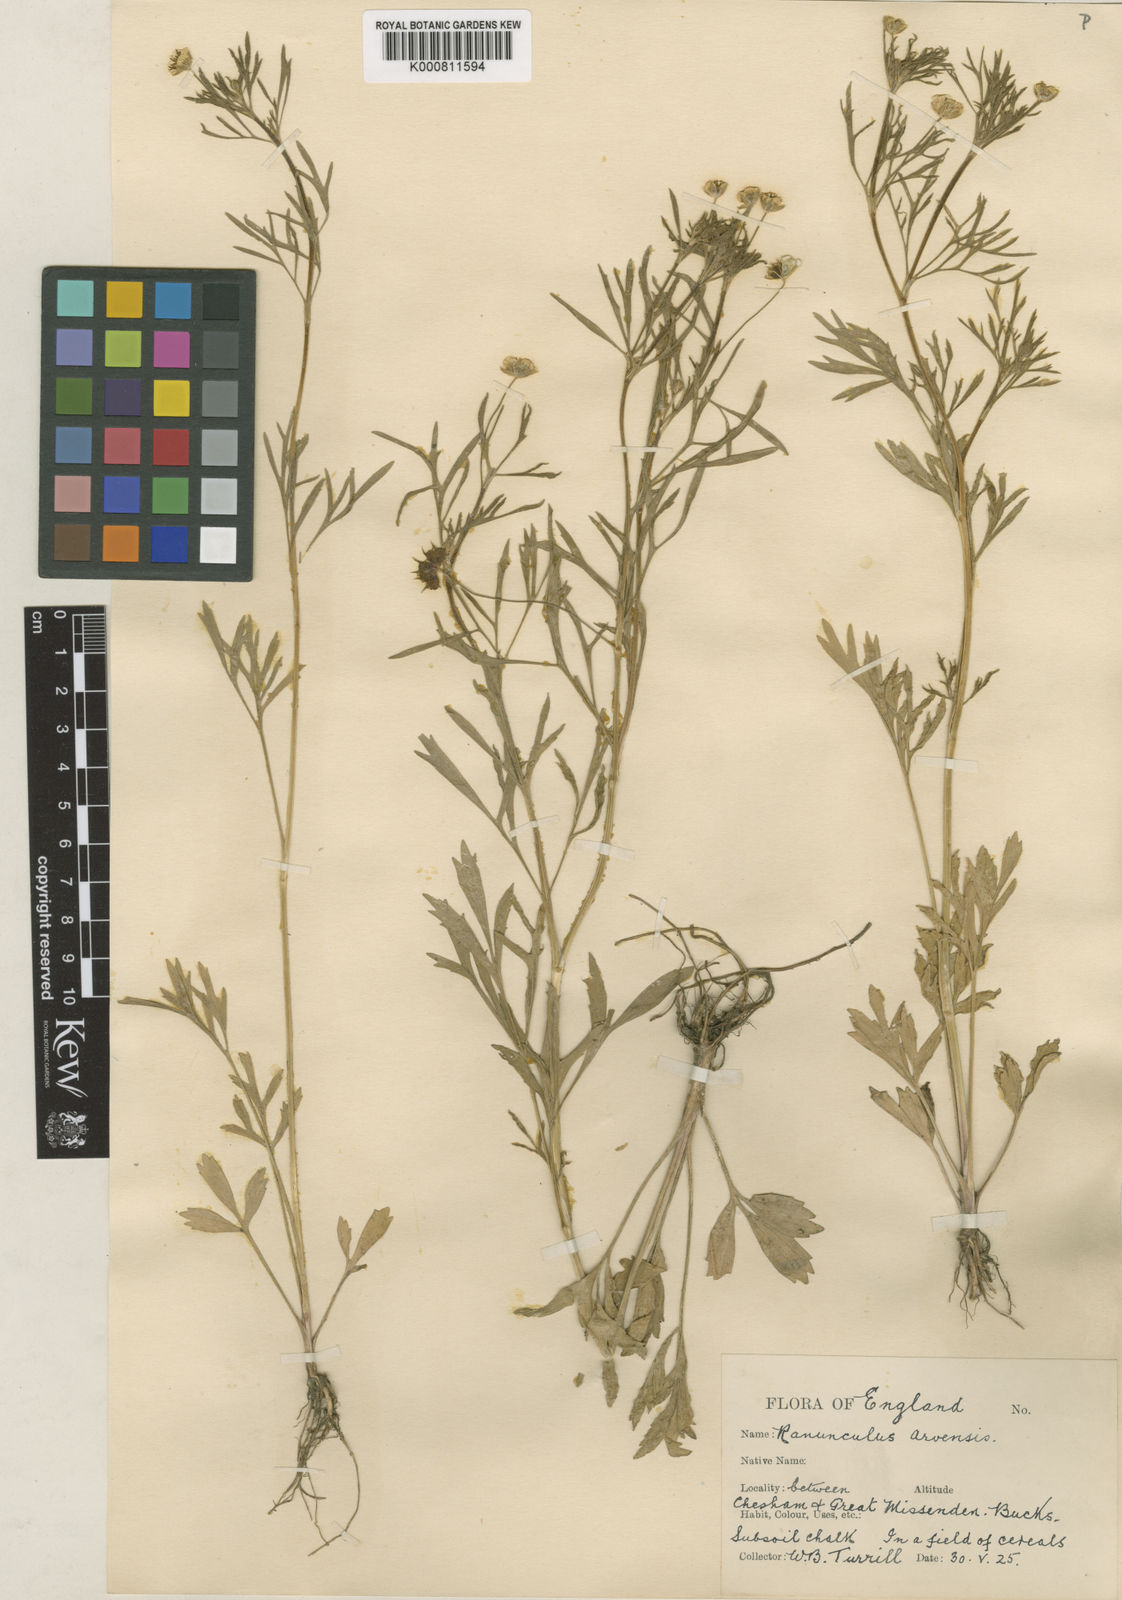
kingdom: Plantae
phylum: Tracheophyta
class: Magnoliopsida
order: Ranunculales
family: Ranunculaceae
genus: Ranunculus
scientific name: Ranunculus arvensis
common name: Corn buttercup
